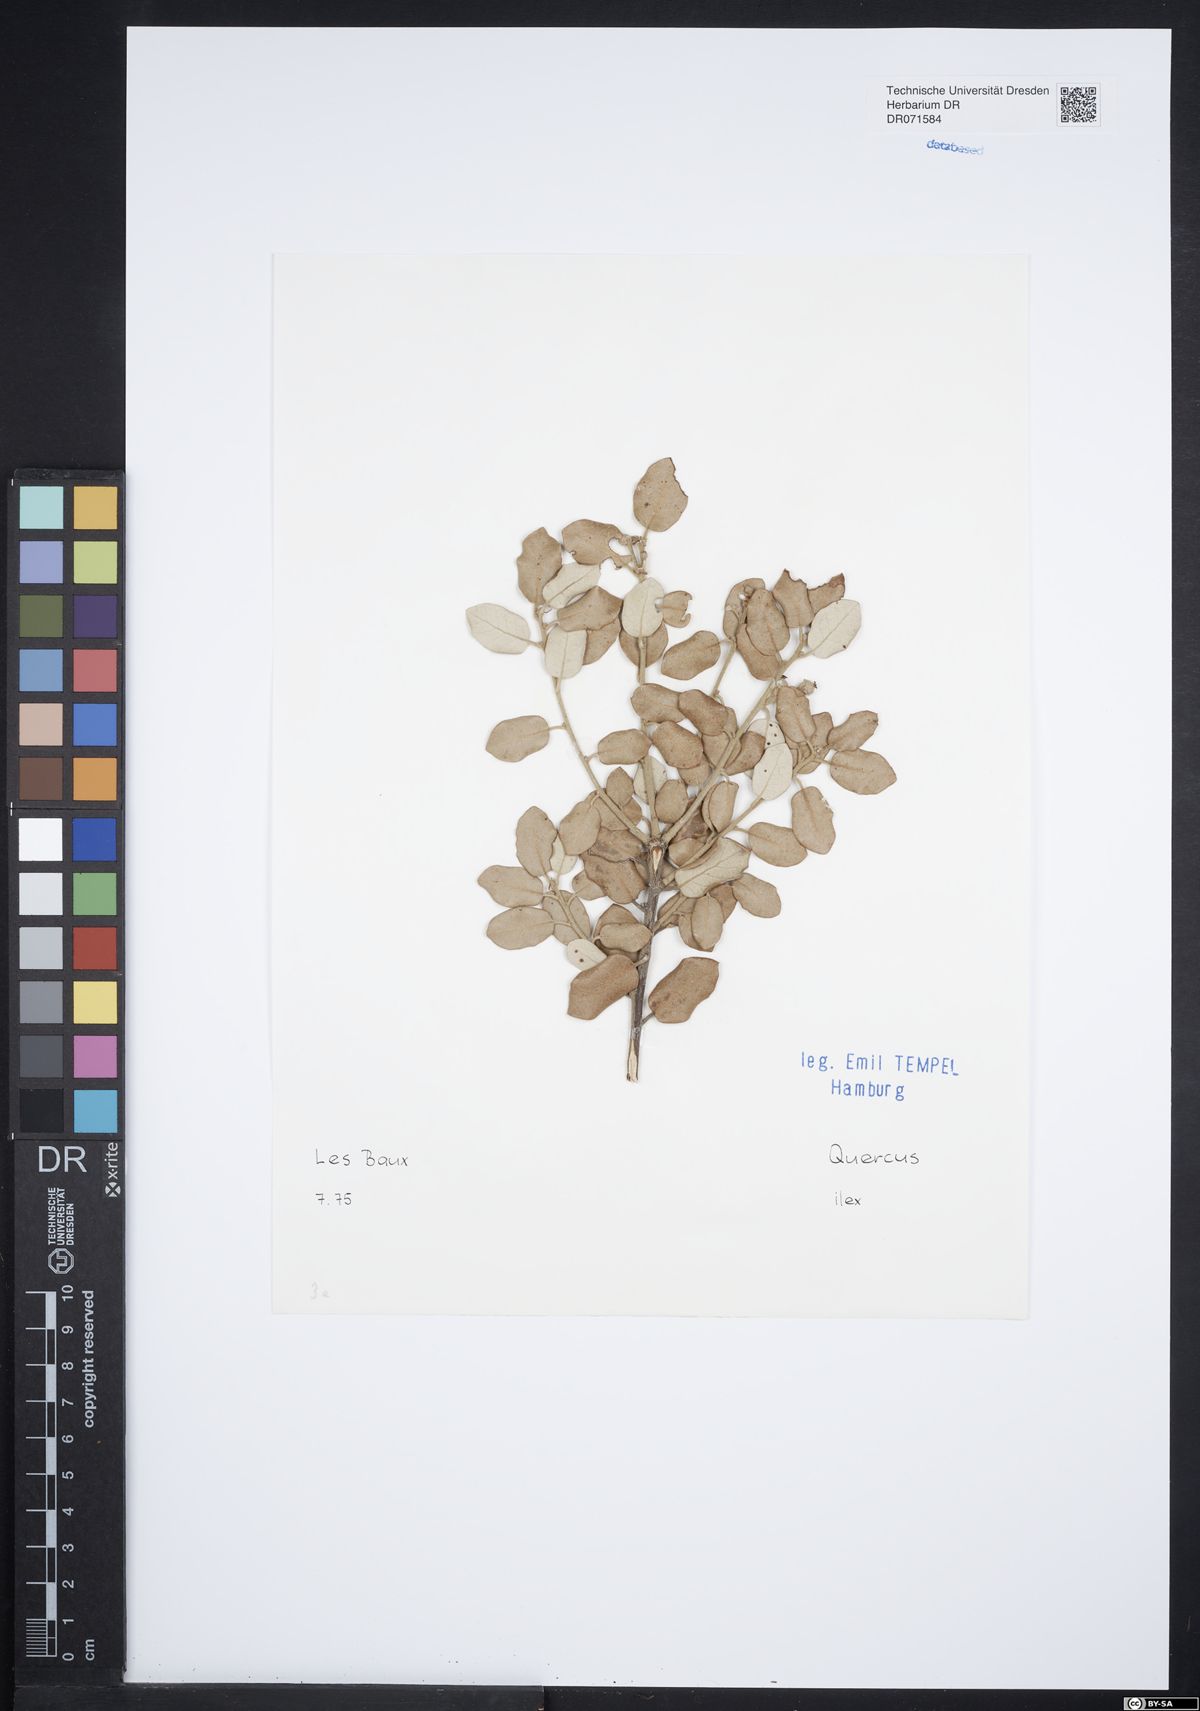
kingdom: Plantae
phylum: Tracheophyta
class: Magnoliopsida
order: Fagales
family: Fagaceae
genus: Quercus
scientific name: Quercus ilex
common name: Evergreen oak
